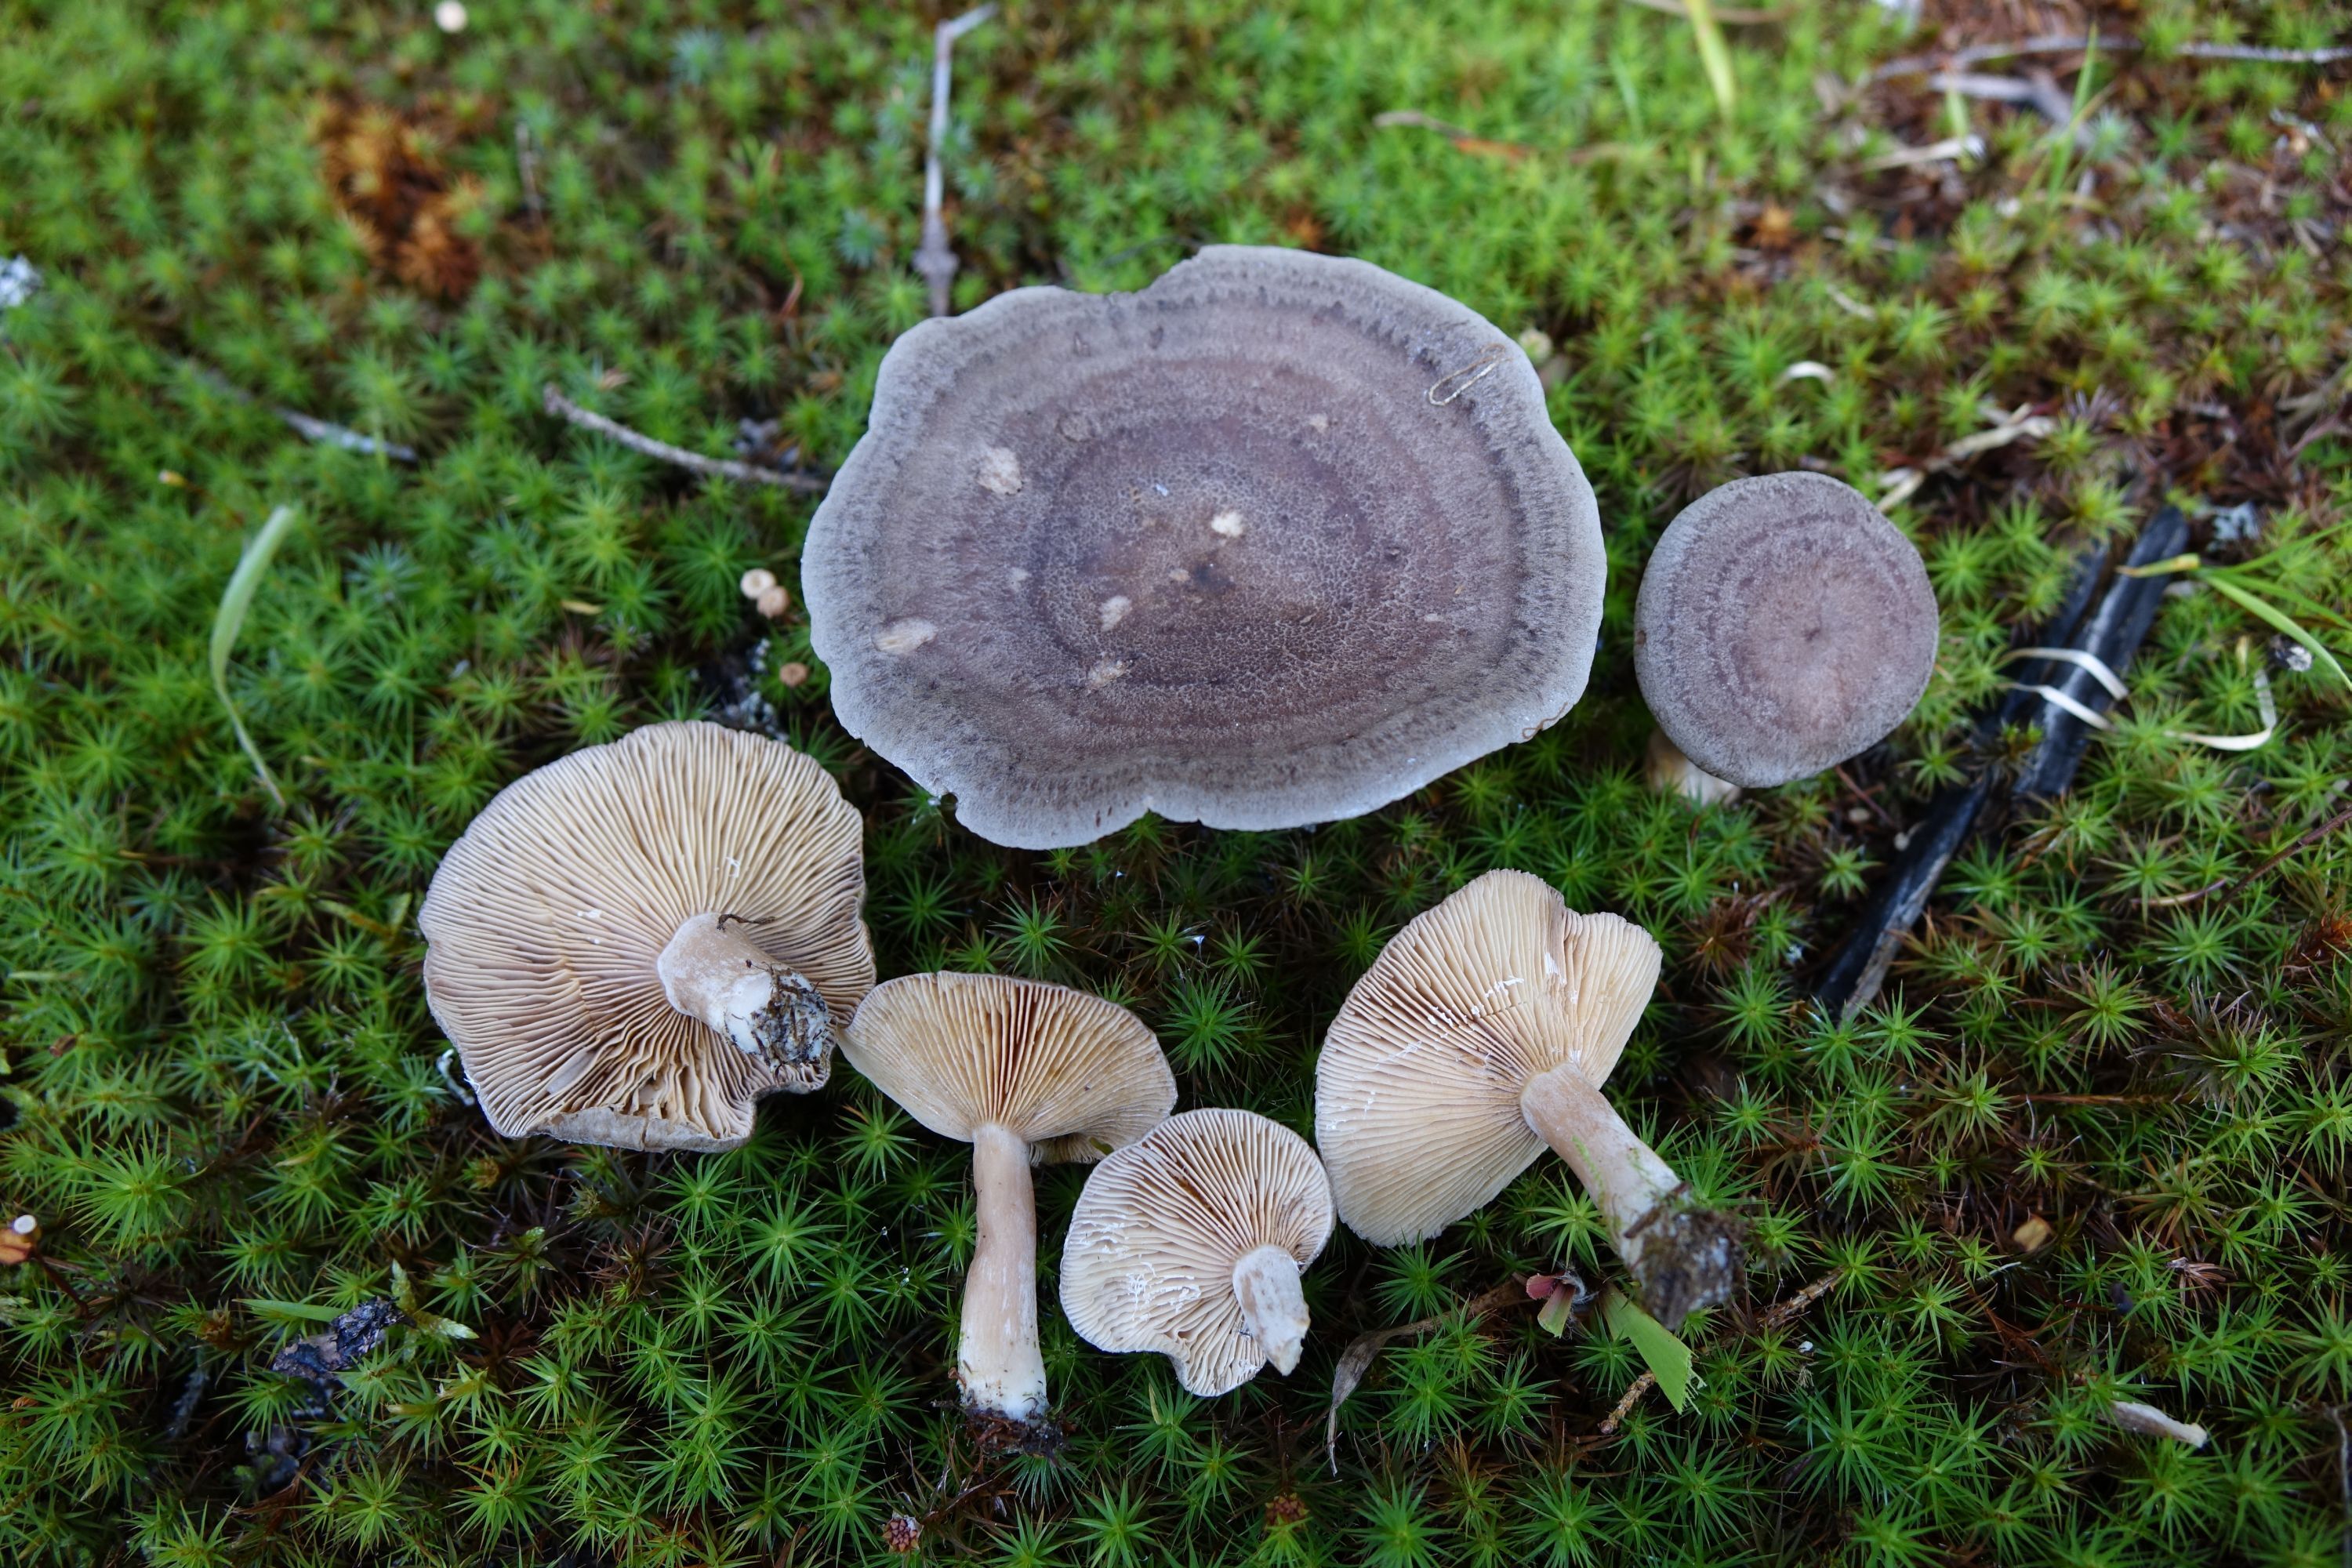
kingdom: Fungi
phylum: Basidiomycota
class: Agaricomycetes
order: Russulales
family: Russulaceae
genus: Lactarius
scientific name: Lactarius mammosus
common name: Pap milkcap
